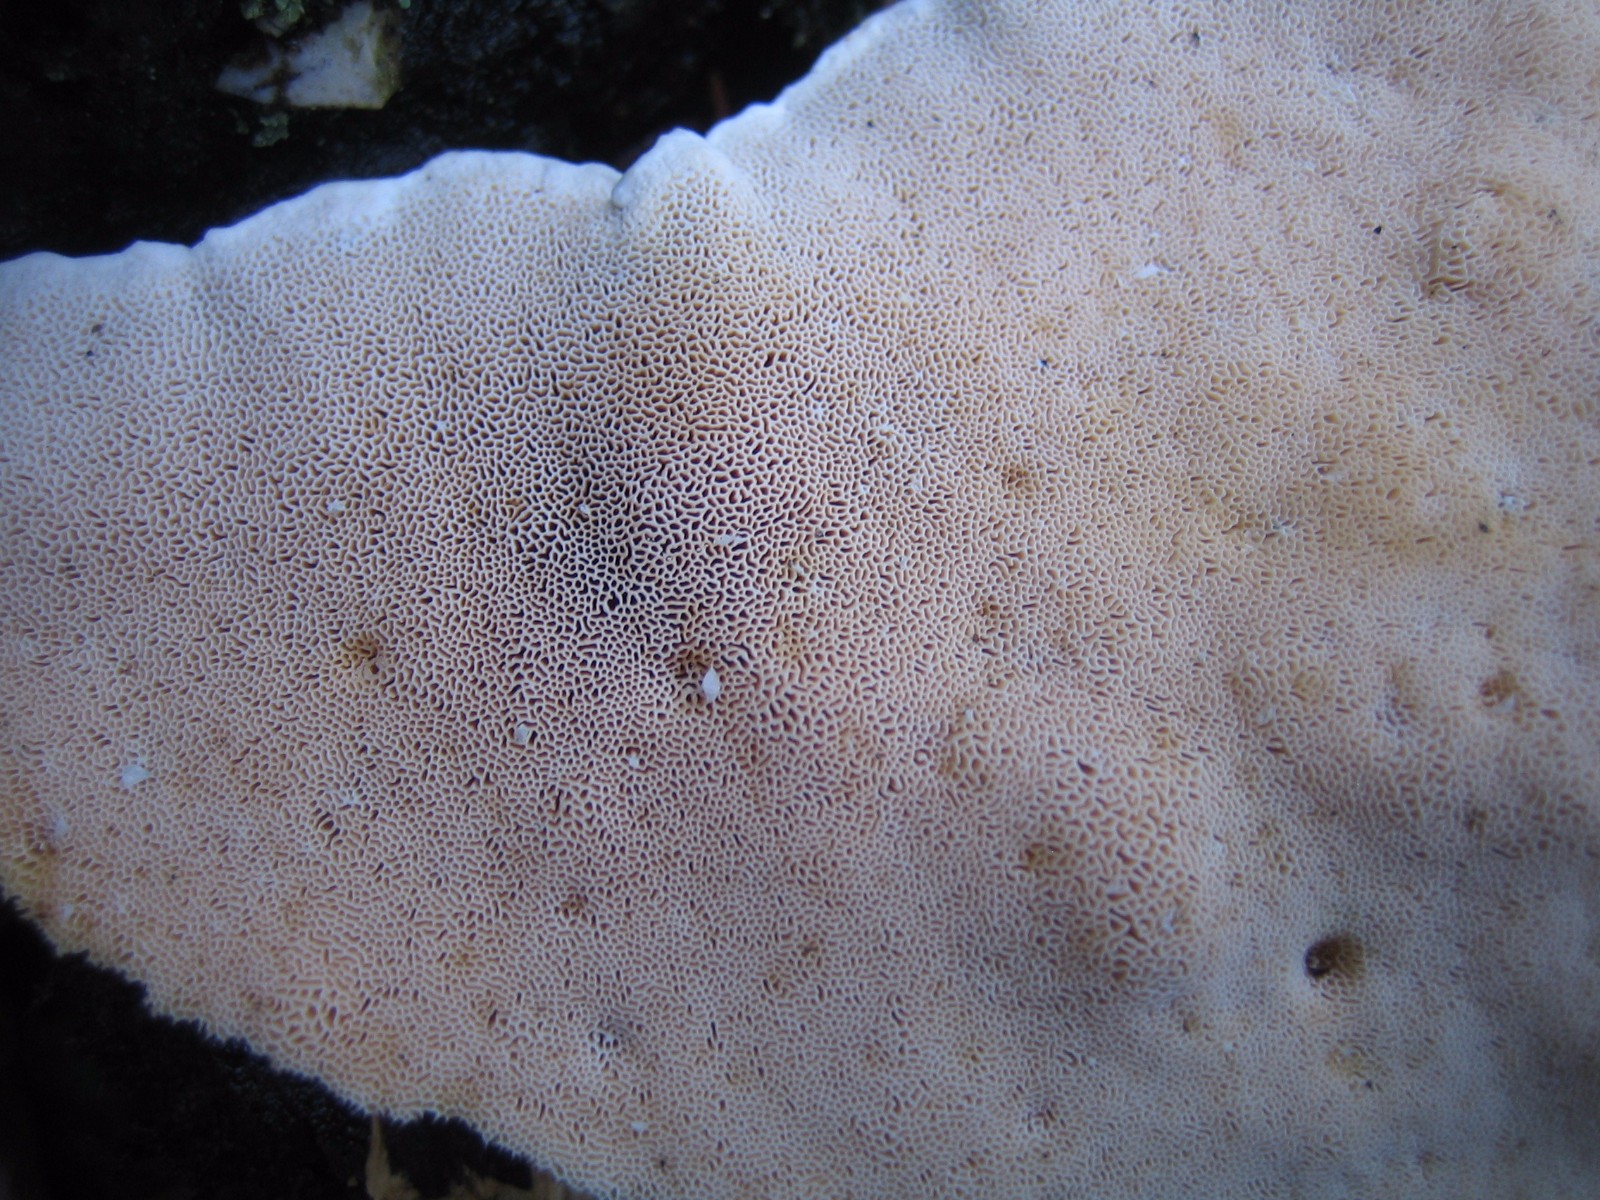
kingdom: Fungi
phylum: Basidiomycota
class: Agaricomycetes
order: Polyporales
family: Fomitopsidaceae
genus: Fomitopsis
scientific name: Fomitopsis pinicola
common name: randbæltet hovporesvamp
